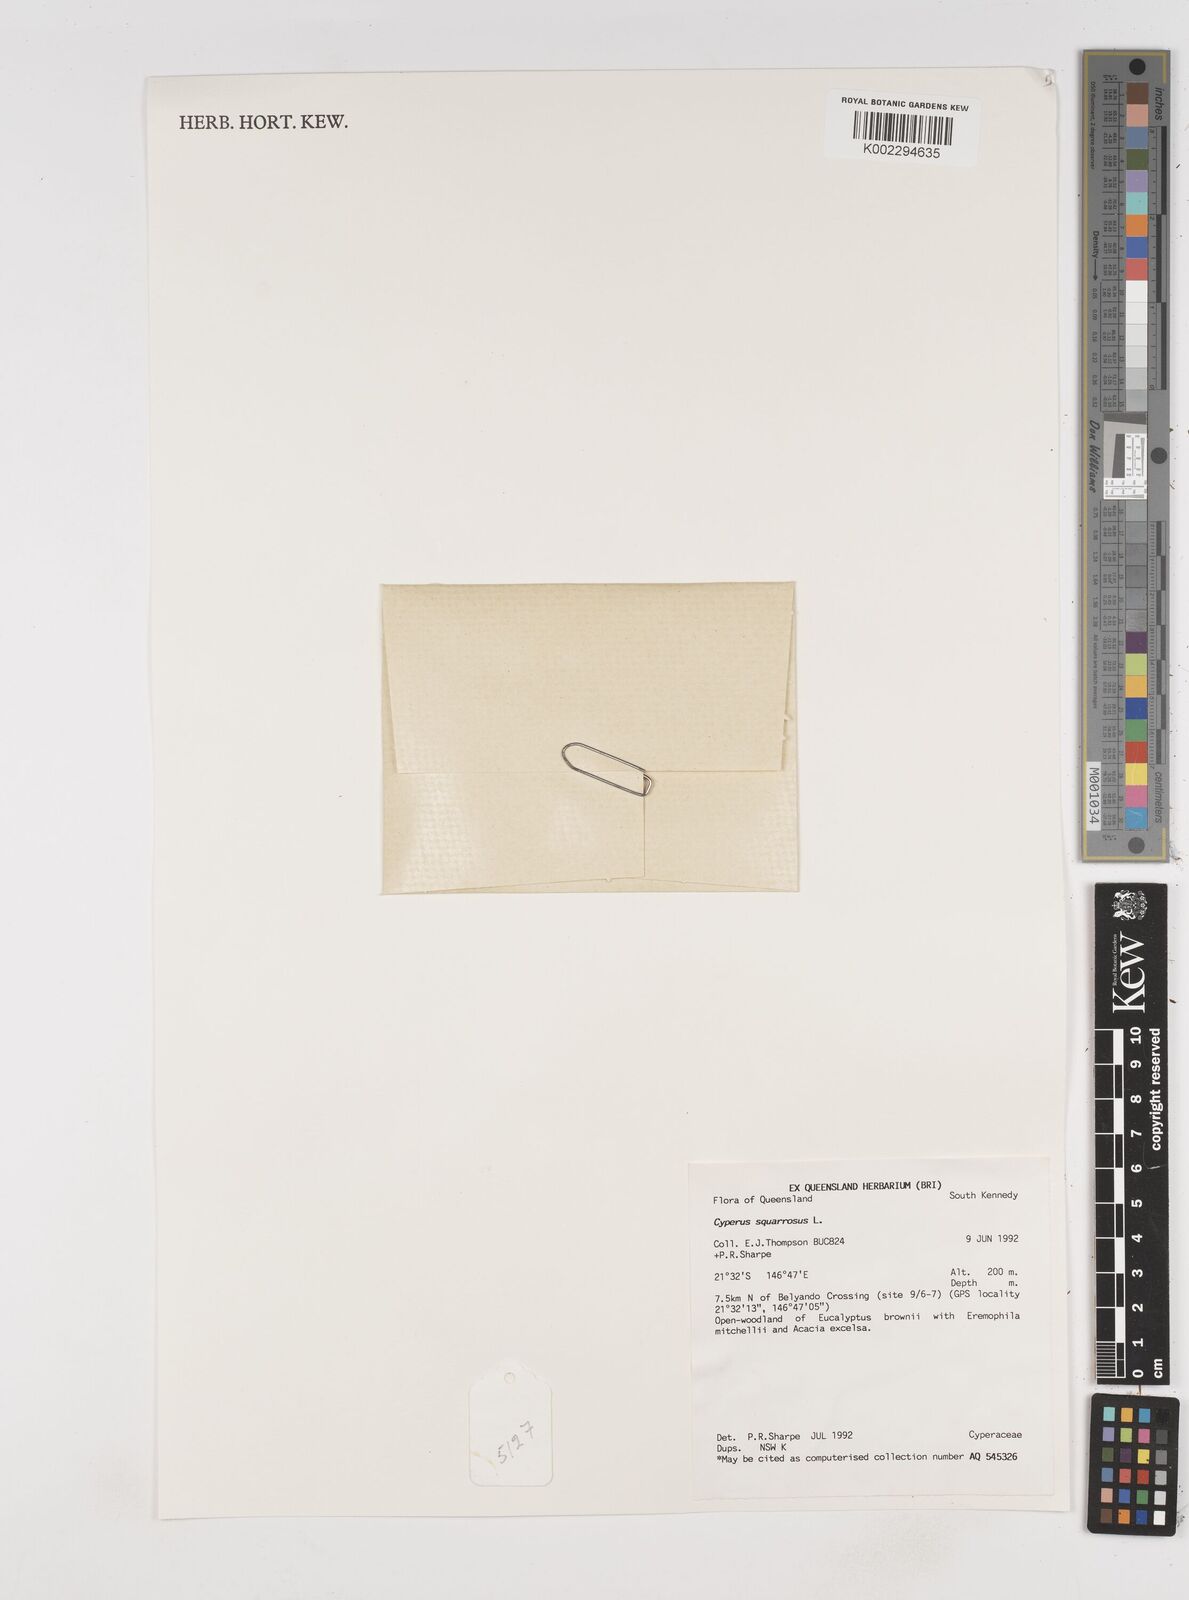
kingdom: Plantae
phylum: Tracheophyta
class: Liliopsida
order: Poales
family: Cyperaceae
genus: Cyperus
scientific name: Cyperus squarrosus
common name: Awned cyperus
